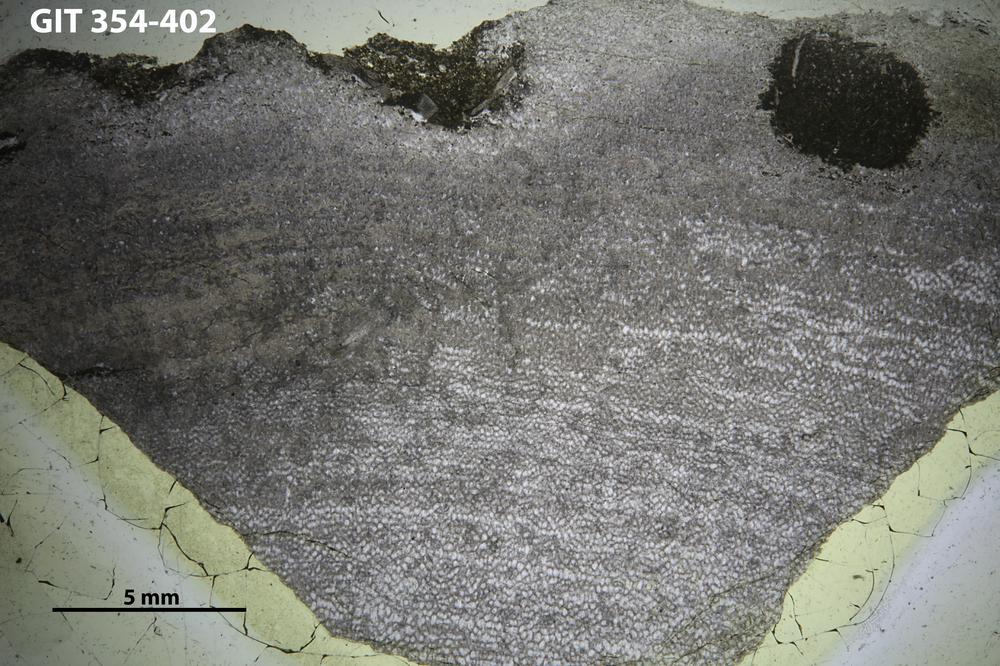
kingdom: Animalia
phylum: Porifera
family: Ecclimadictyidae
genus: Ecclimadictyon
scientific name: Ecclimadictyon macrotuberculatum
